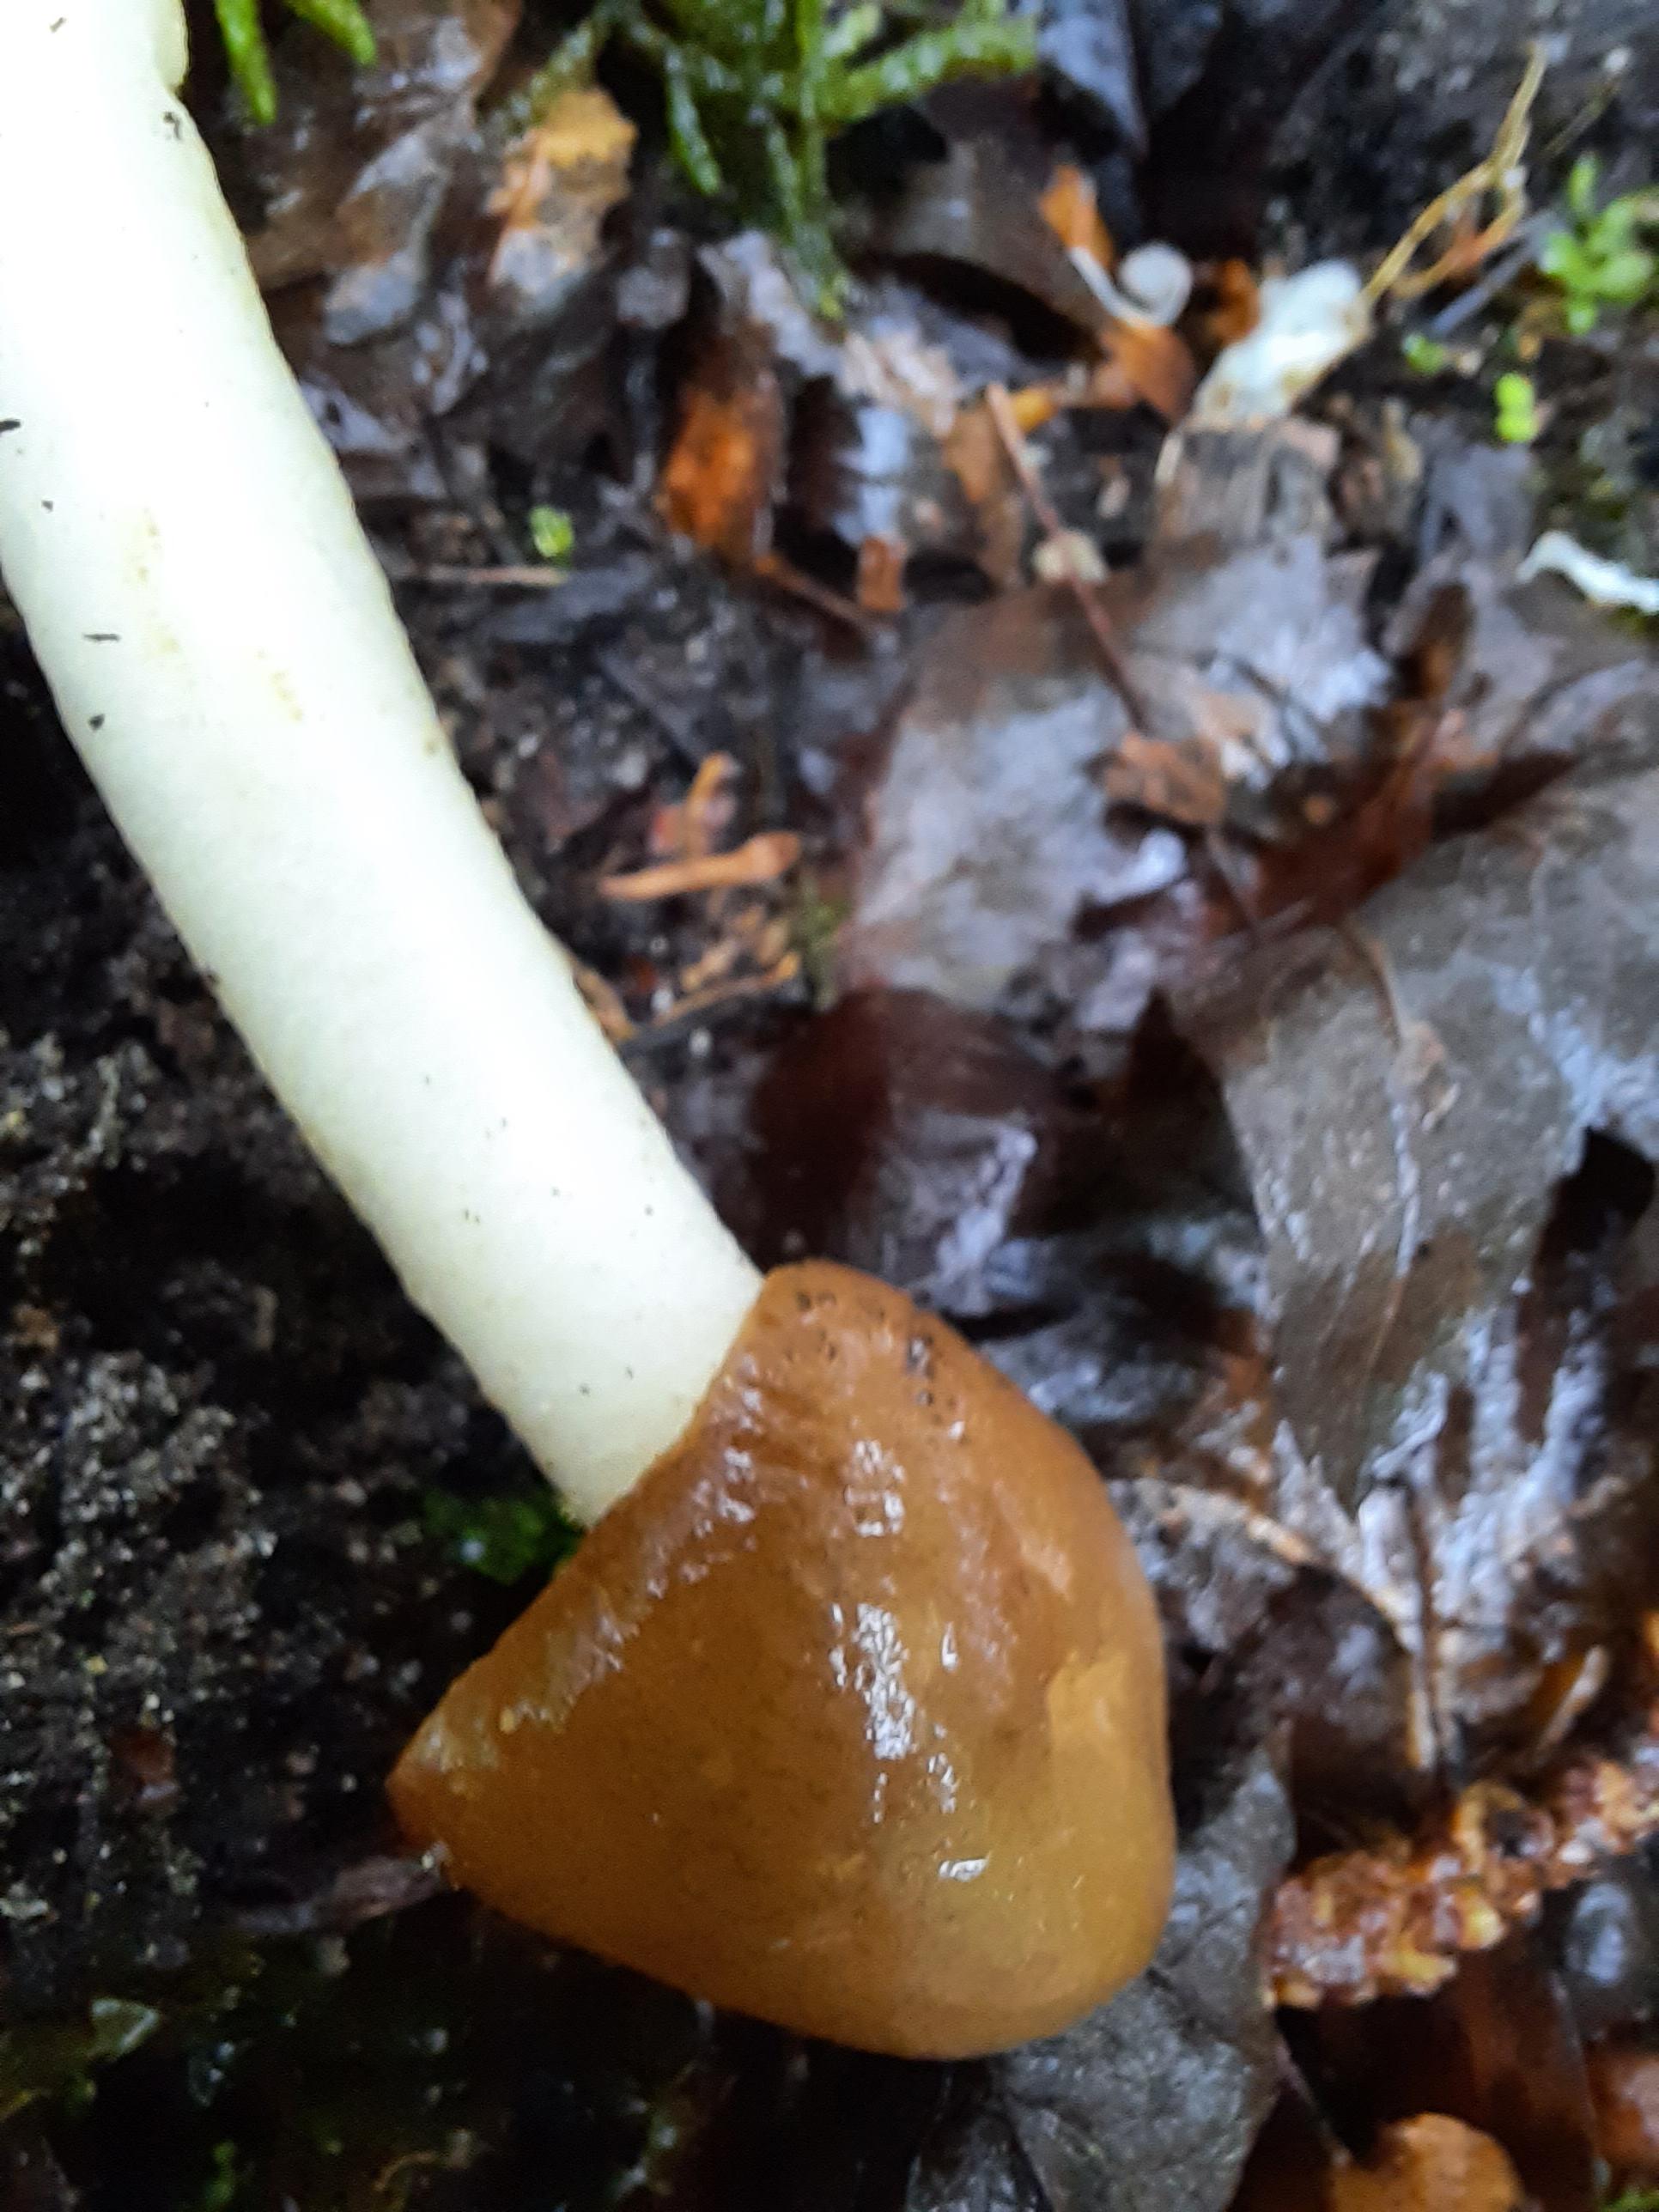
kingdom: Fungi
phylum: Ascomycota
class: Pezizomycetes
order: Pezizales
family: Morchellaceae
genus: Verpa
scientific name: Verpa conica
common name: glat klokkemorkel
